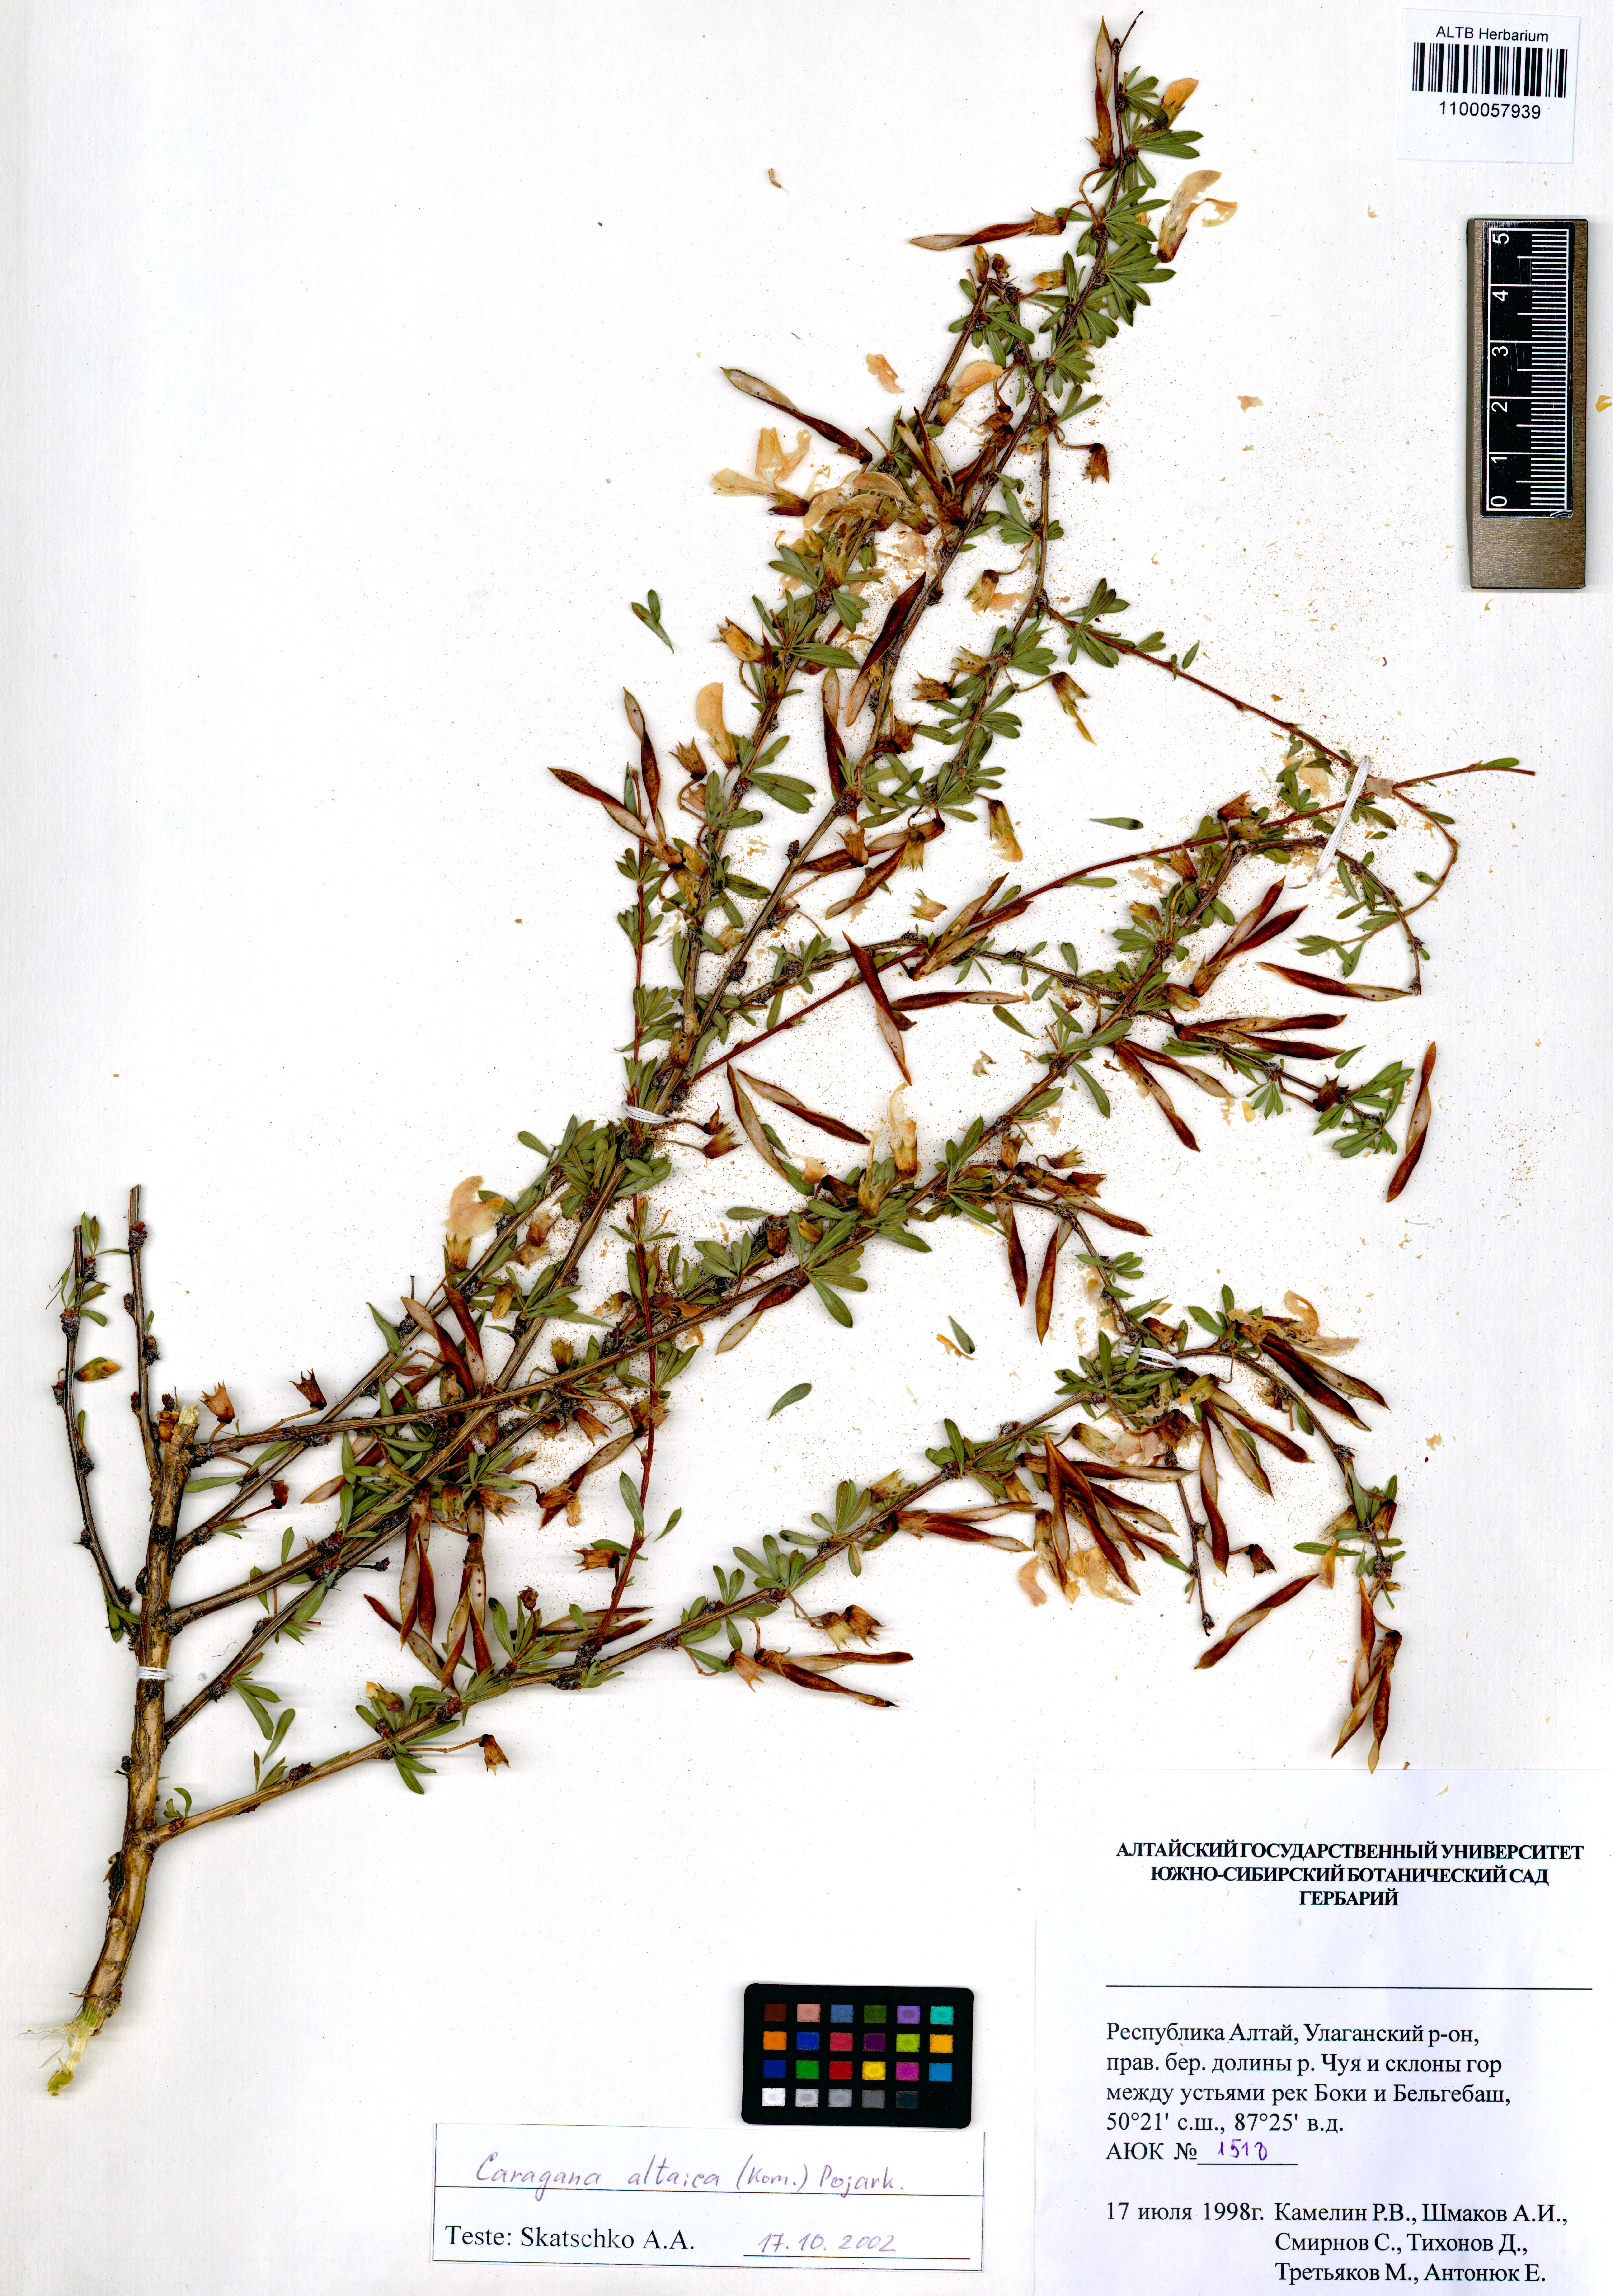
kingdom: Plantae
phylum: Tracheophyta
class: Magnoliopsida
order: Fabales
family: Fabaceae
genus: Caragana
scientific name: Caragana pygmaea
